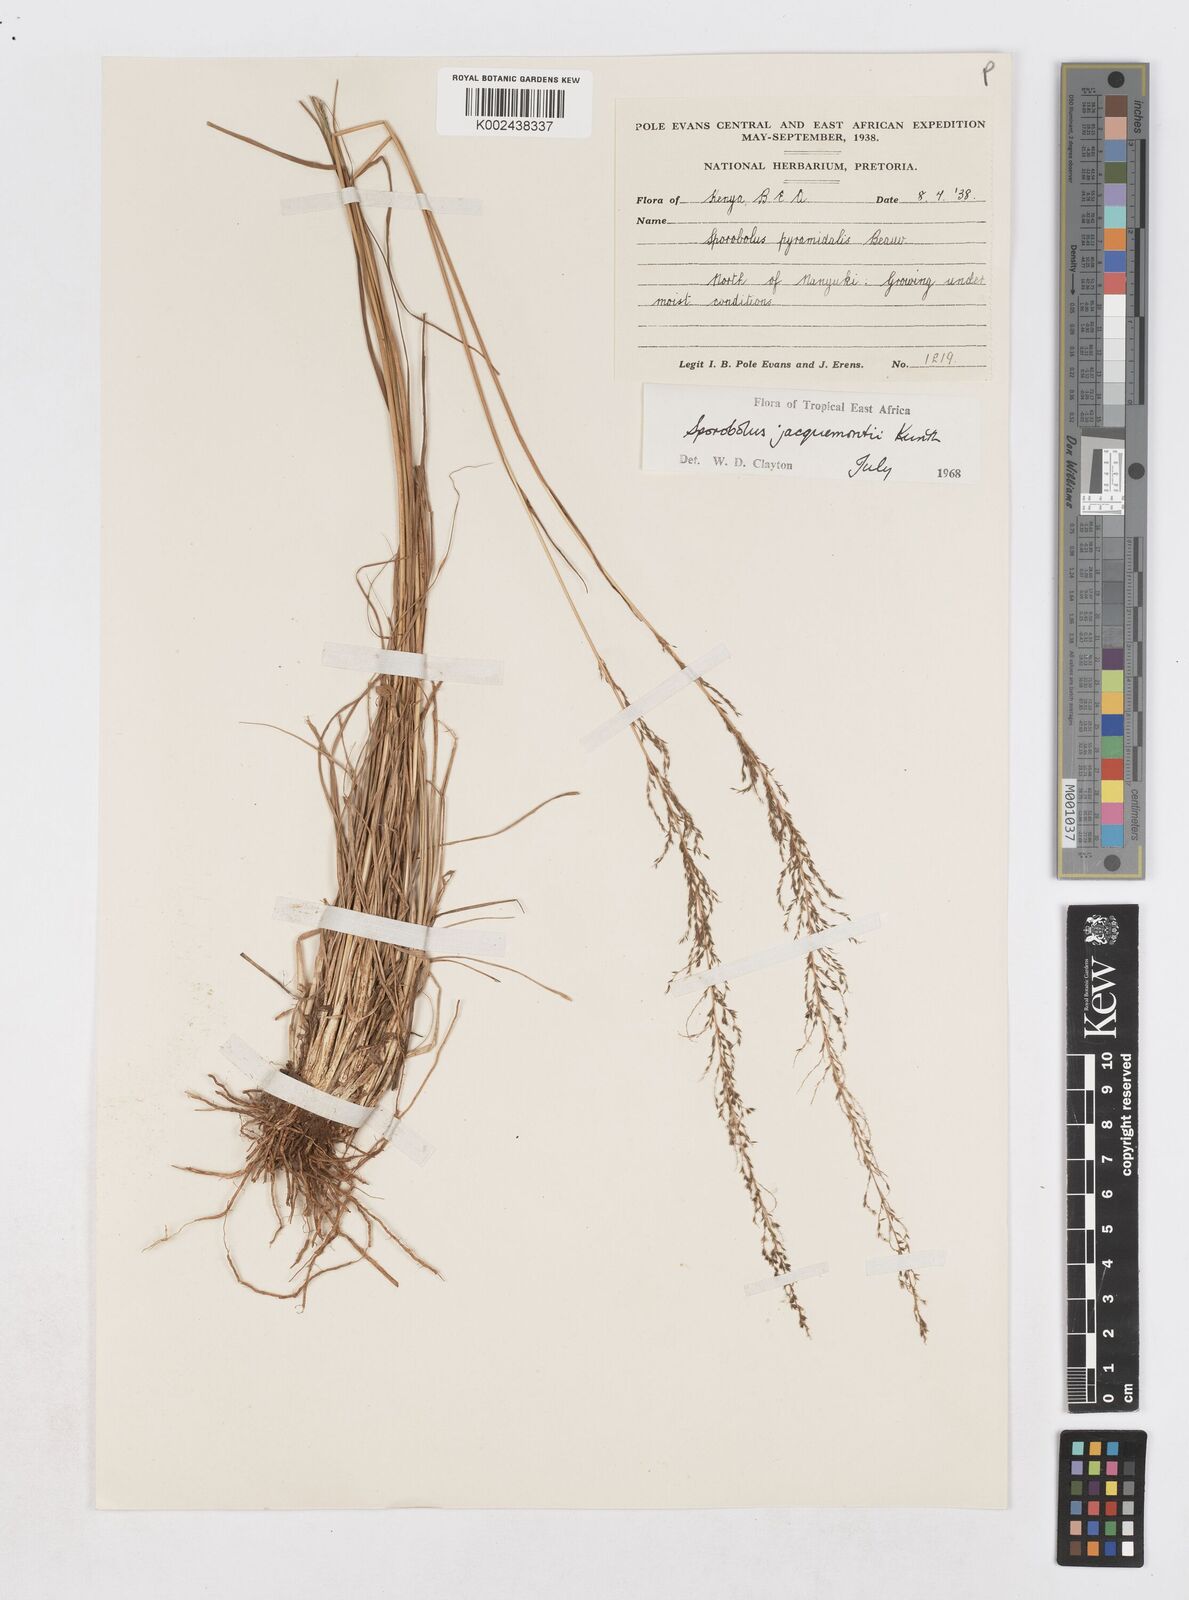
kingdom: Plantae
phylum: Tracheophyta
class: Liliopsida
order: Poales
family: Poaceae
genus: Sporobolus
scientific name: Sporobolus pyramidalis
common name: West indian dropseed
